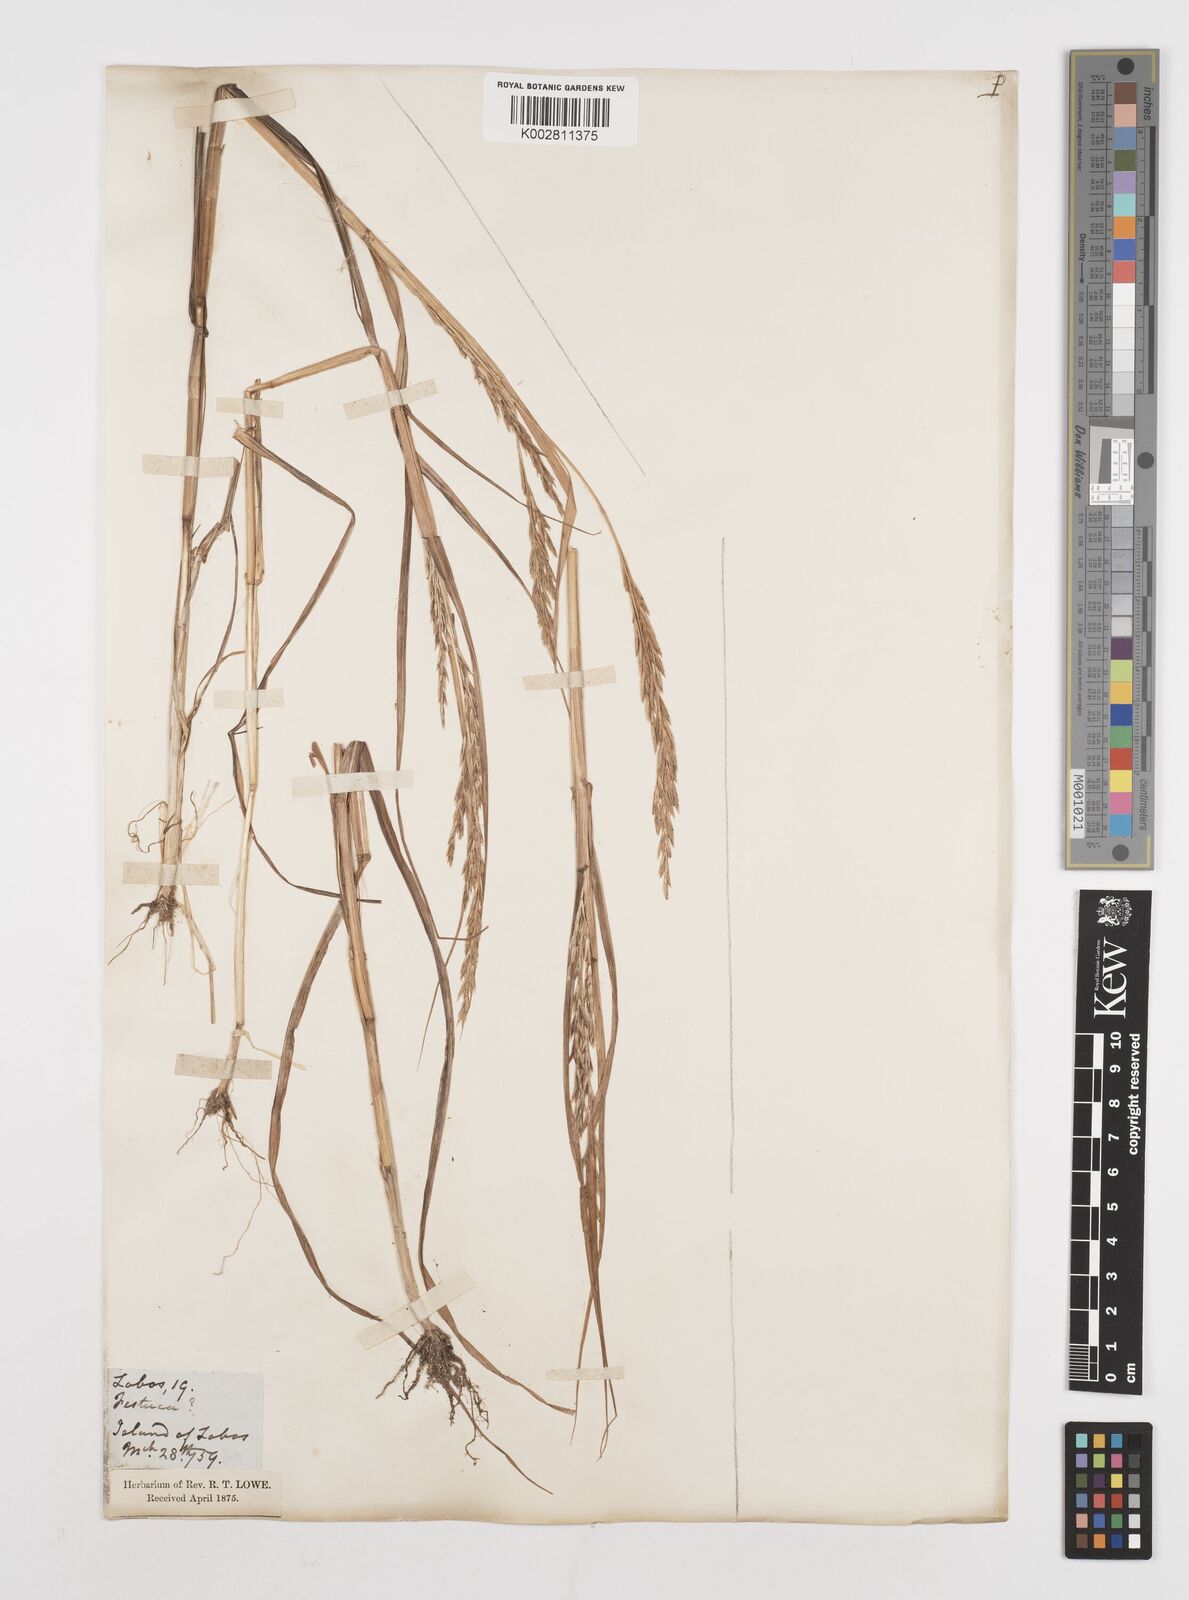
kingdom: Plantae
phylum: Tracheophyta
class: Liliopsida
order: Poales
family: Poaceae
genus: Castellia
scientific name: Castellia tuberculosa
